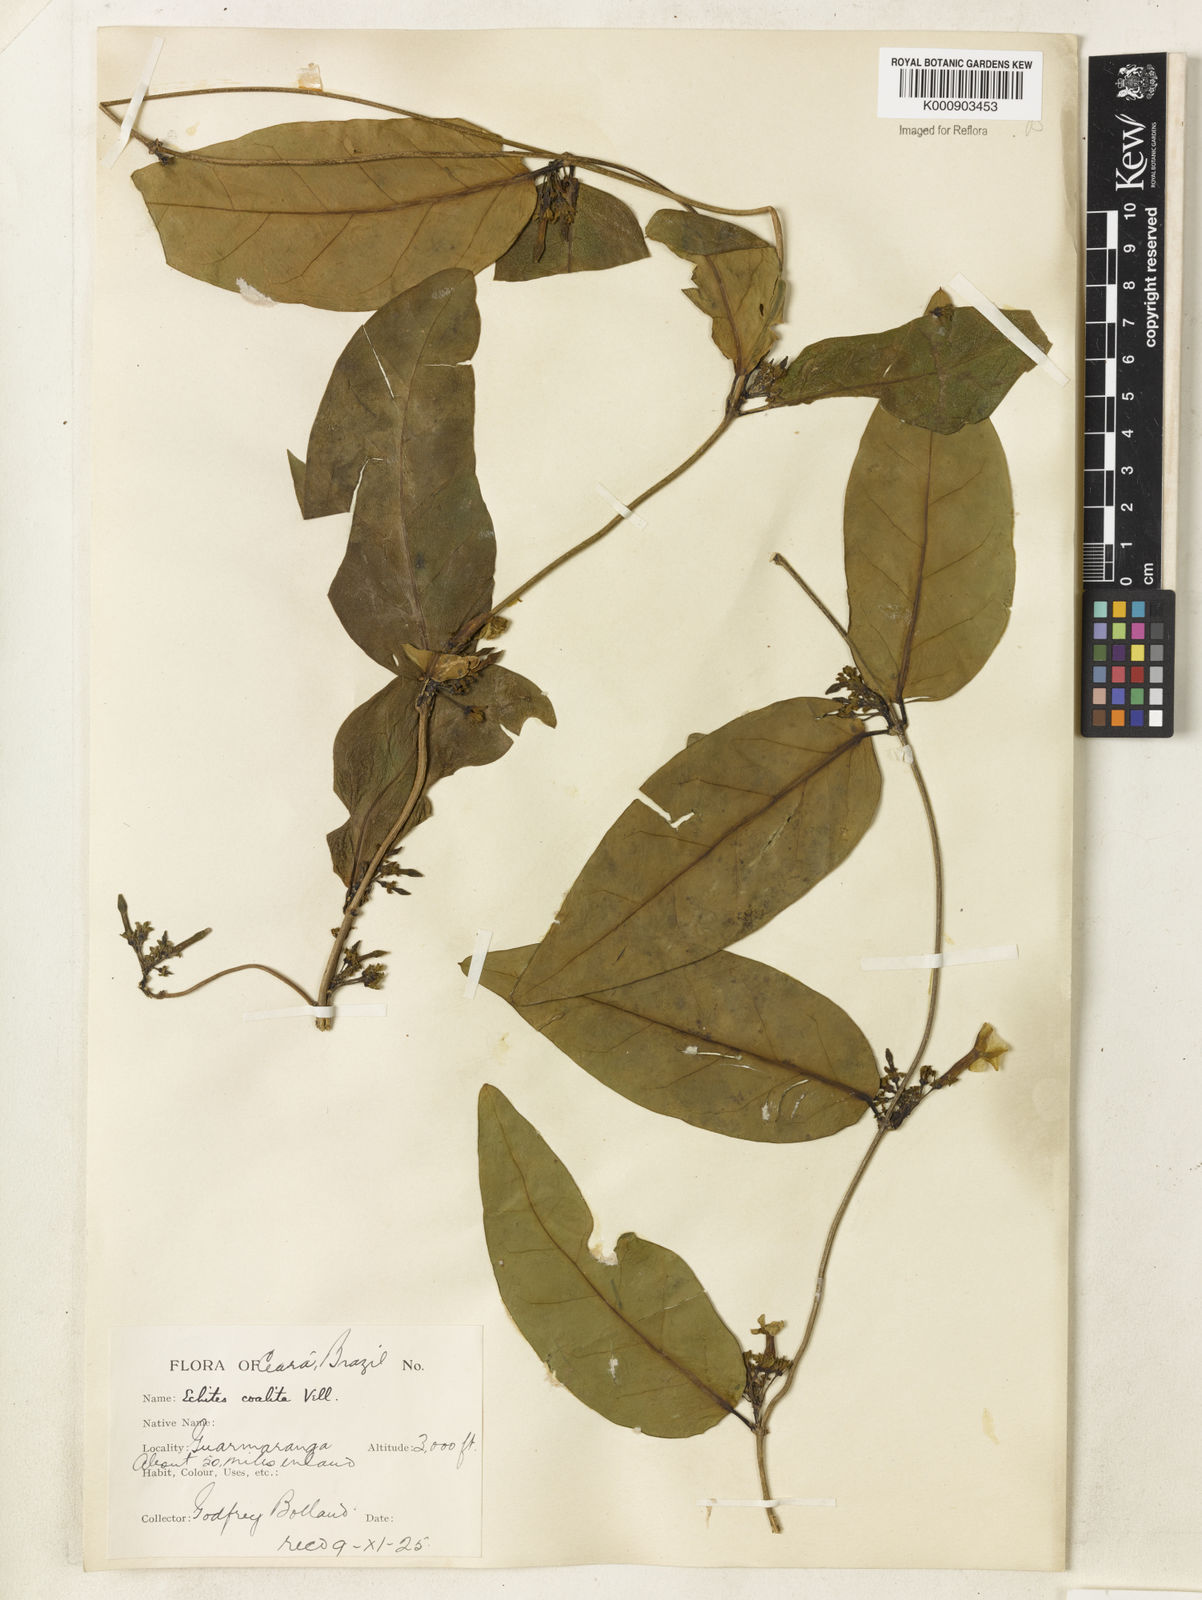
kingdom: Plantae
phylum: Tracheophyta
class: Magnoliopsida
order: Gentianales
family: Apocynaceae
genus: Prestonia
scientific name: Prestonia coalita
